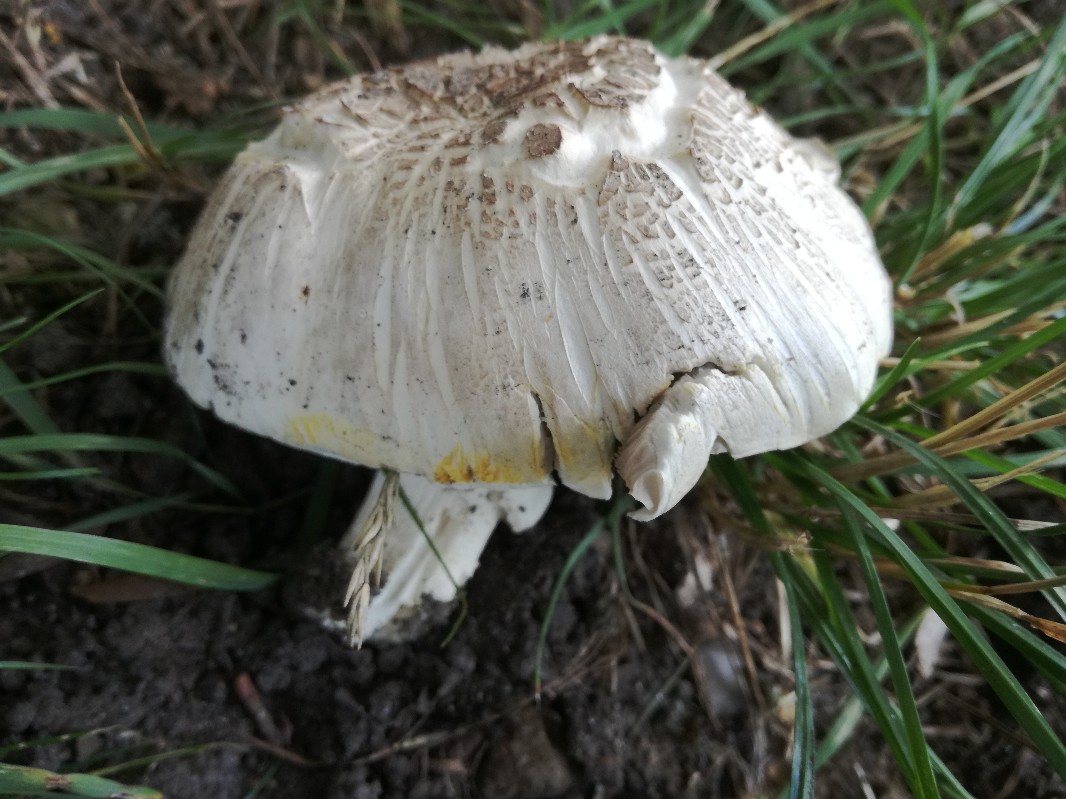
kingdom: Fungi
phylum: Basidiomycota
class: Agaricomycetes
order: Agaricales
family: Agaricaceae
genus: Agaricus
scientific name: Agaricus xanthodermus
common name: karbol-champignon
